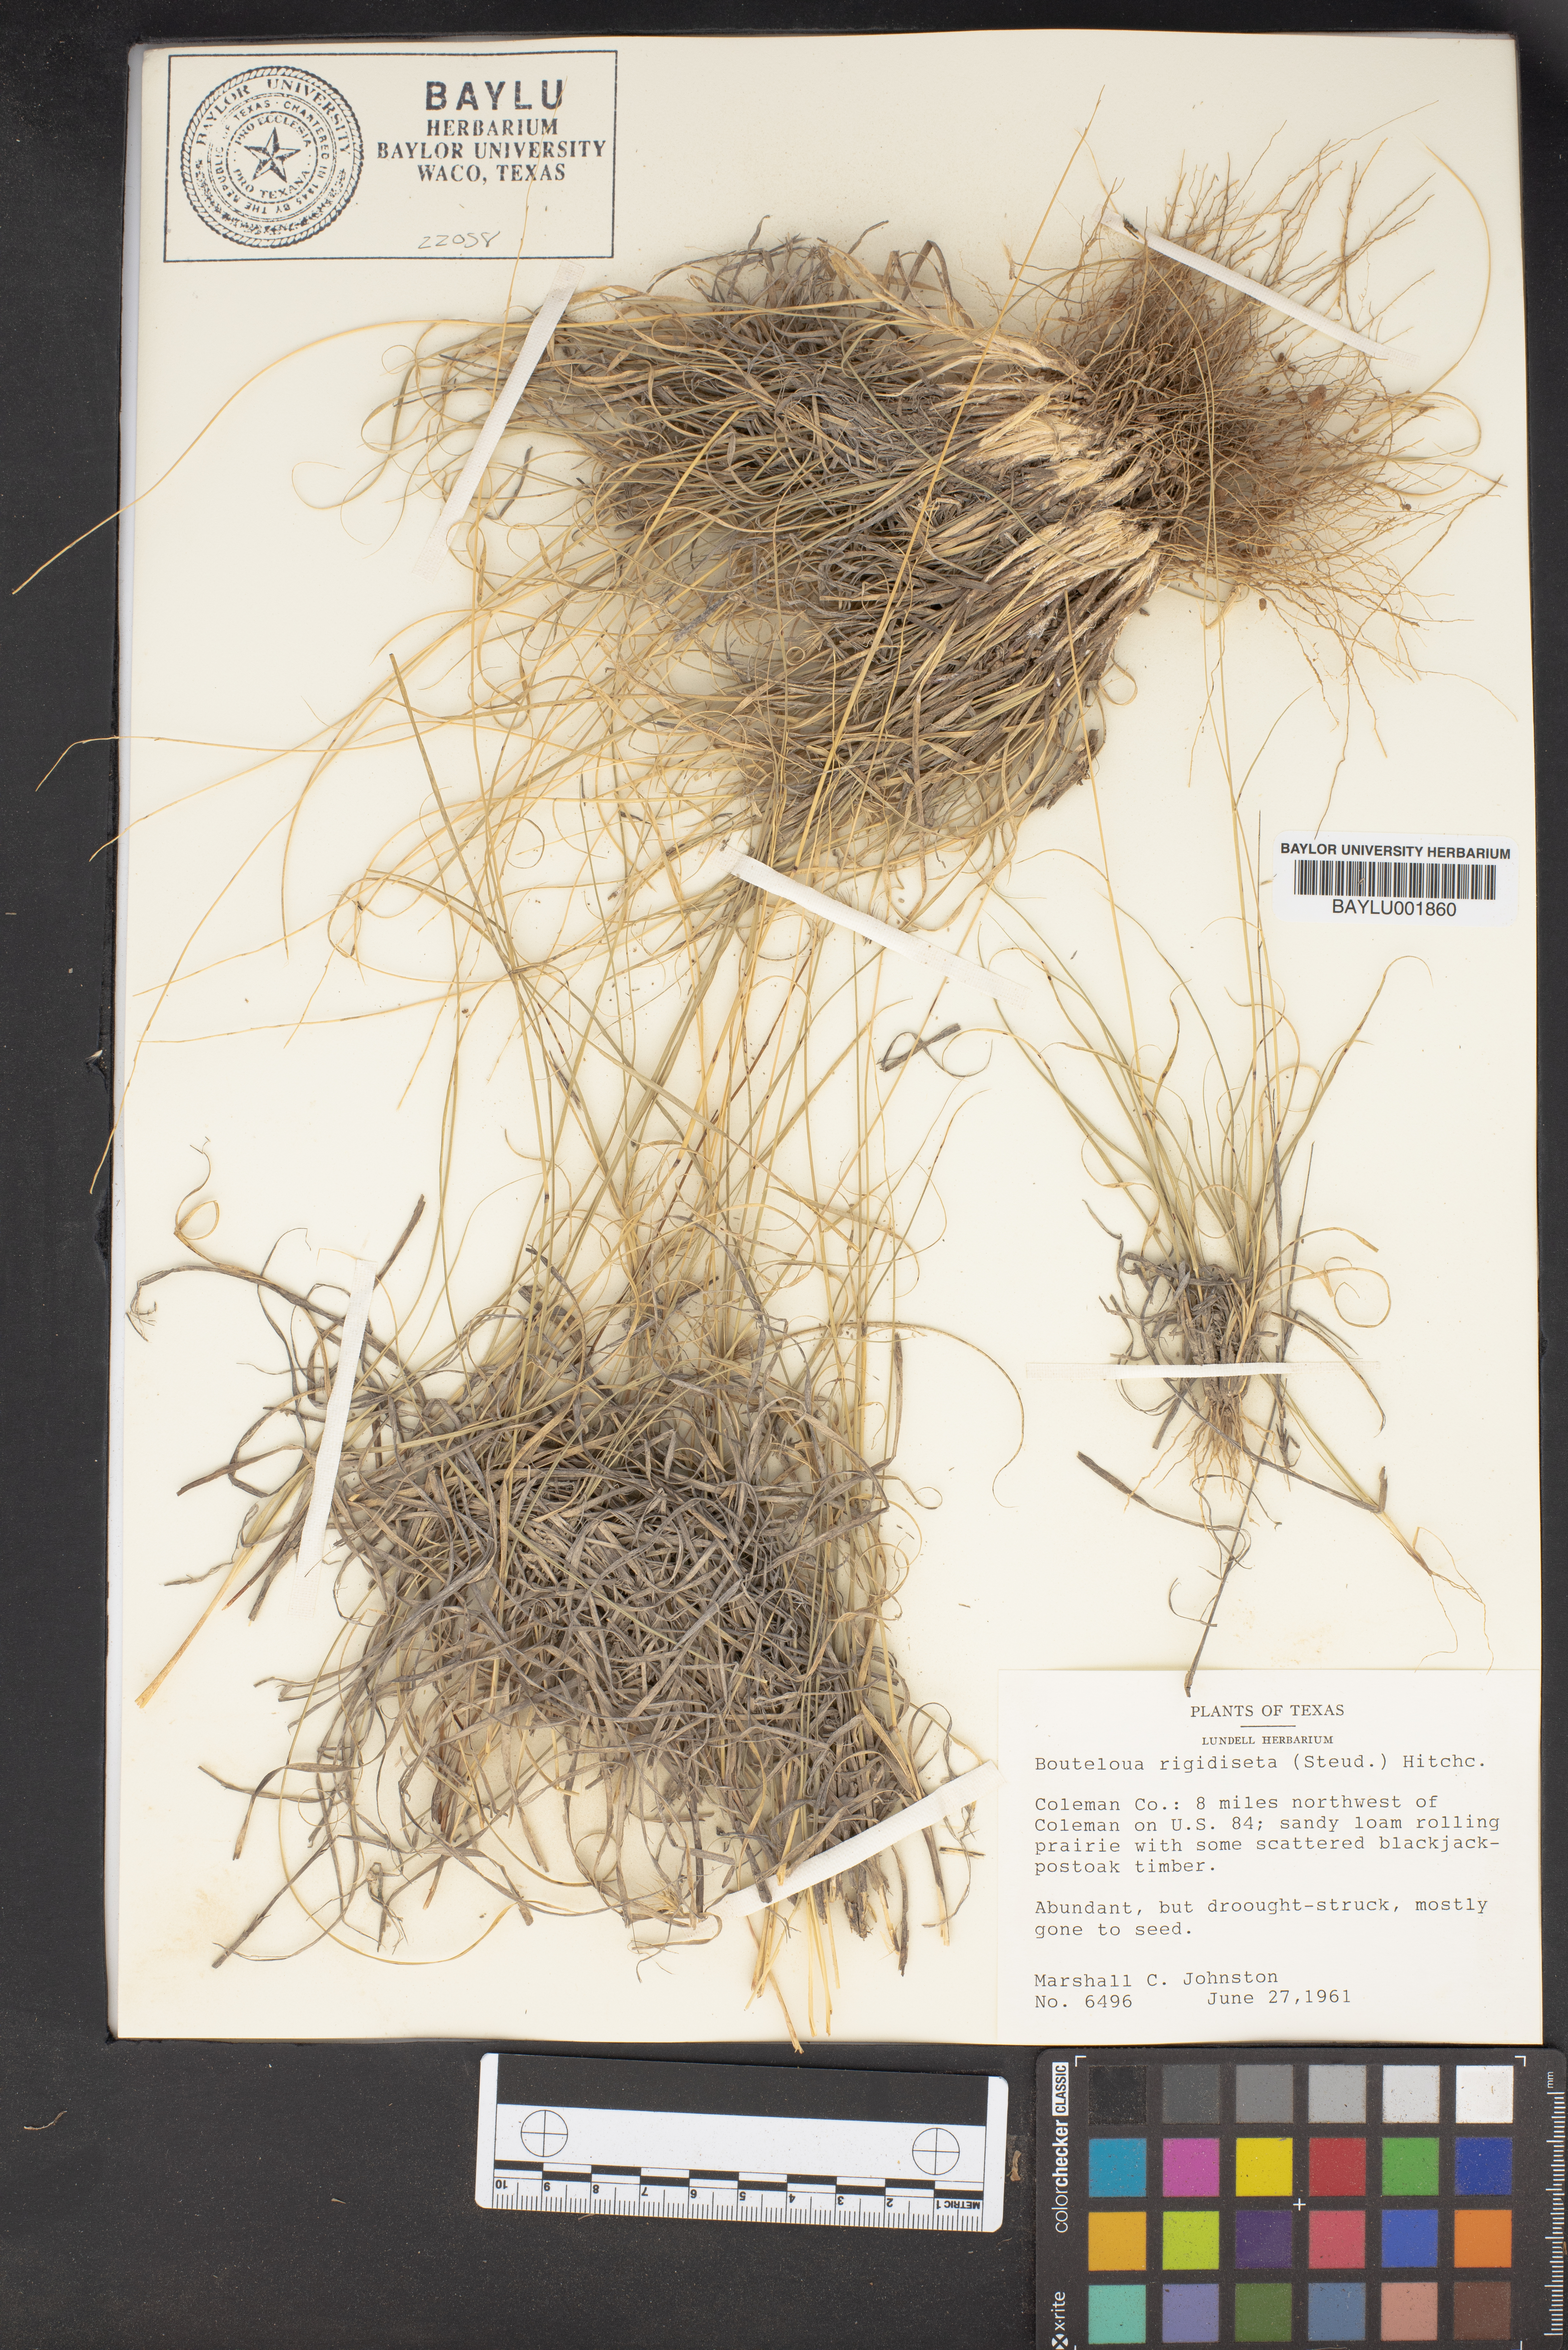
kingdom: Plantae
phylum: Tracheophyta
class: Liliopsida
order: Poales
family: Poaceae
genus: Bouteloua
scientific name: Bouteloua rigidiseta
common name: Texas grama
